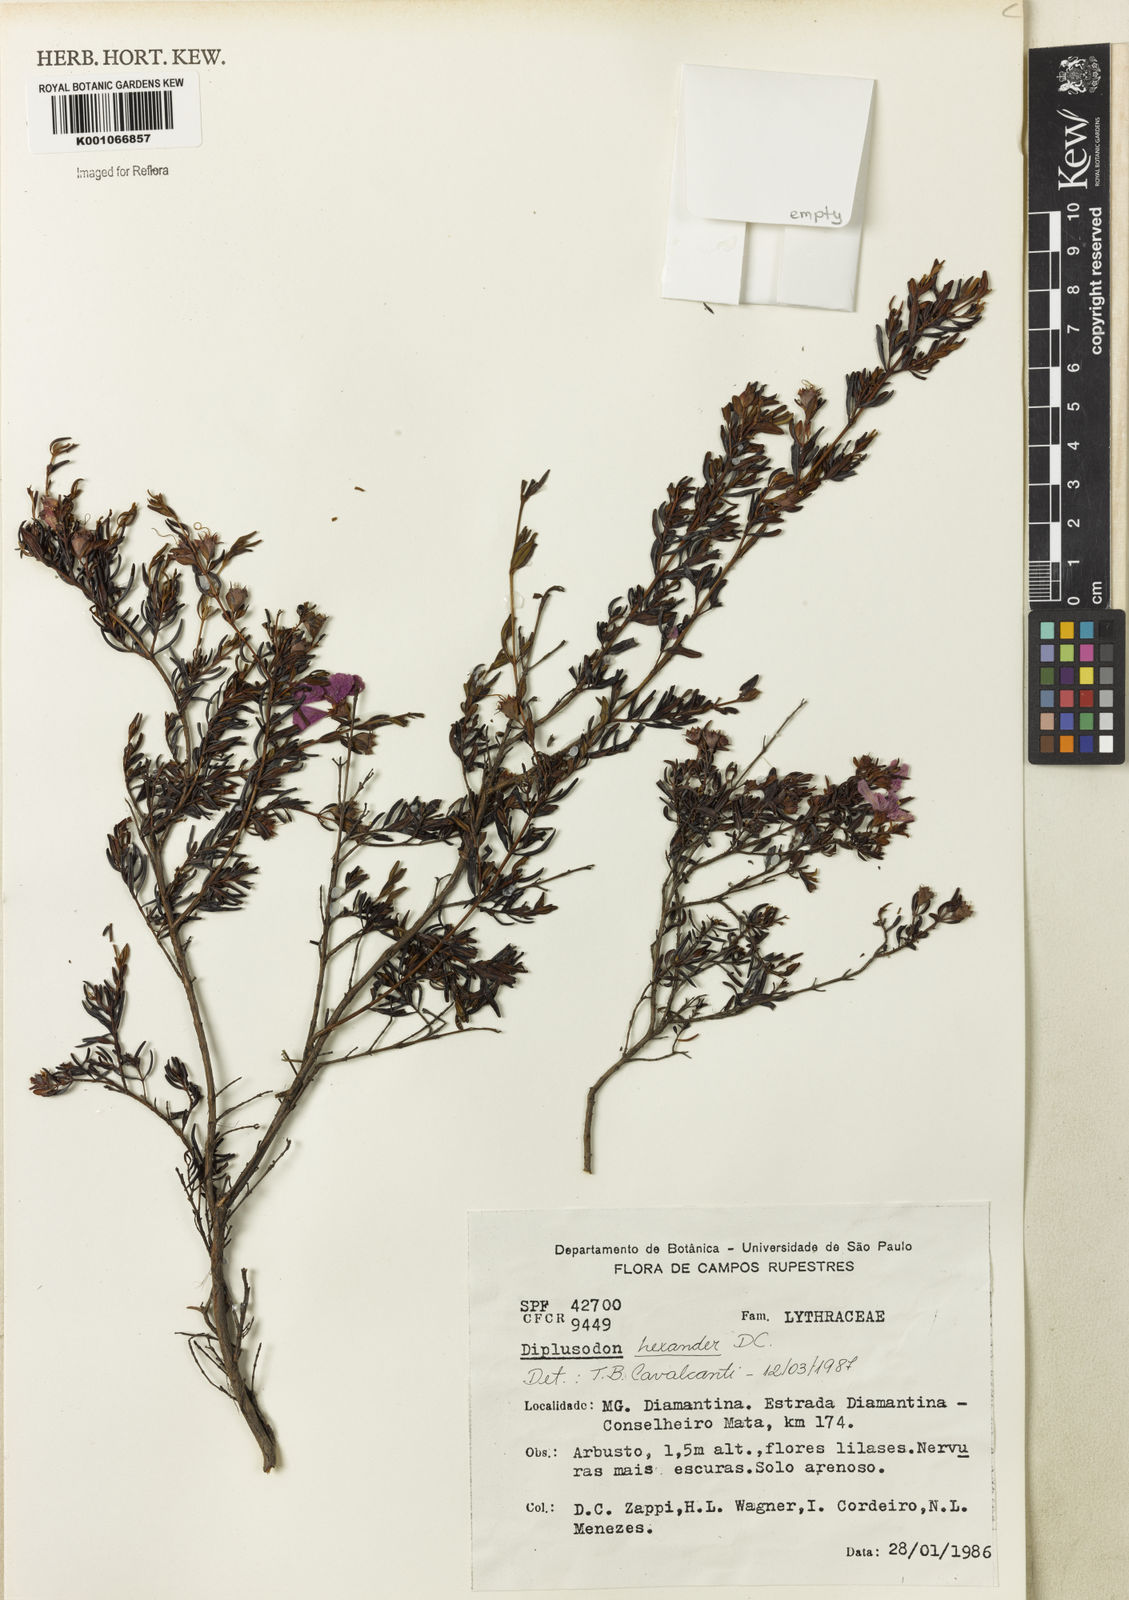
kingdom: Plantae
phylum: Tracheophyta
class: Magnoliopsida
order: Myrtales
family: Lythraceae
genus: Diplusodon
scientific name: Diplusodon hexander
